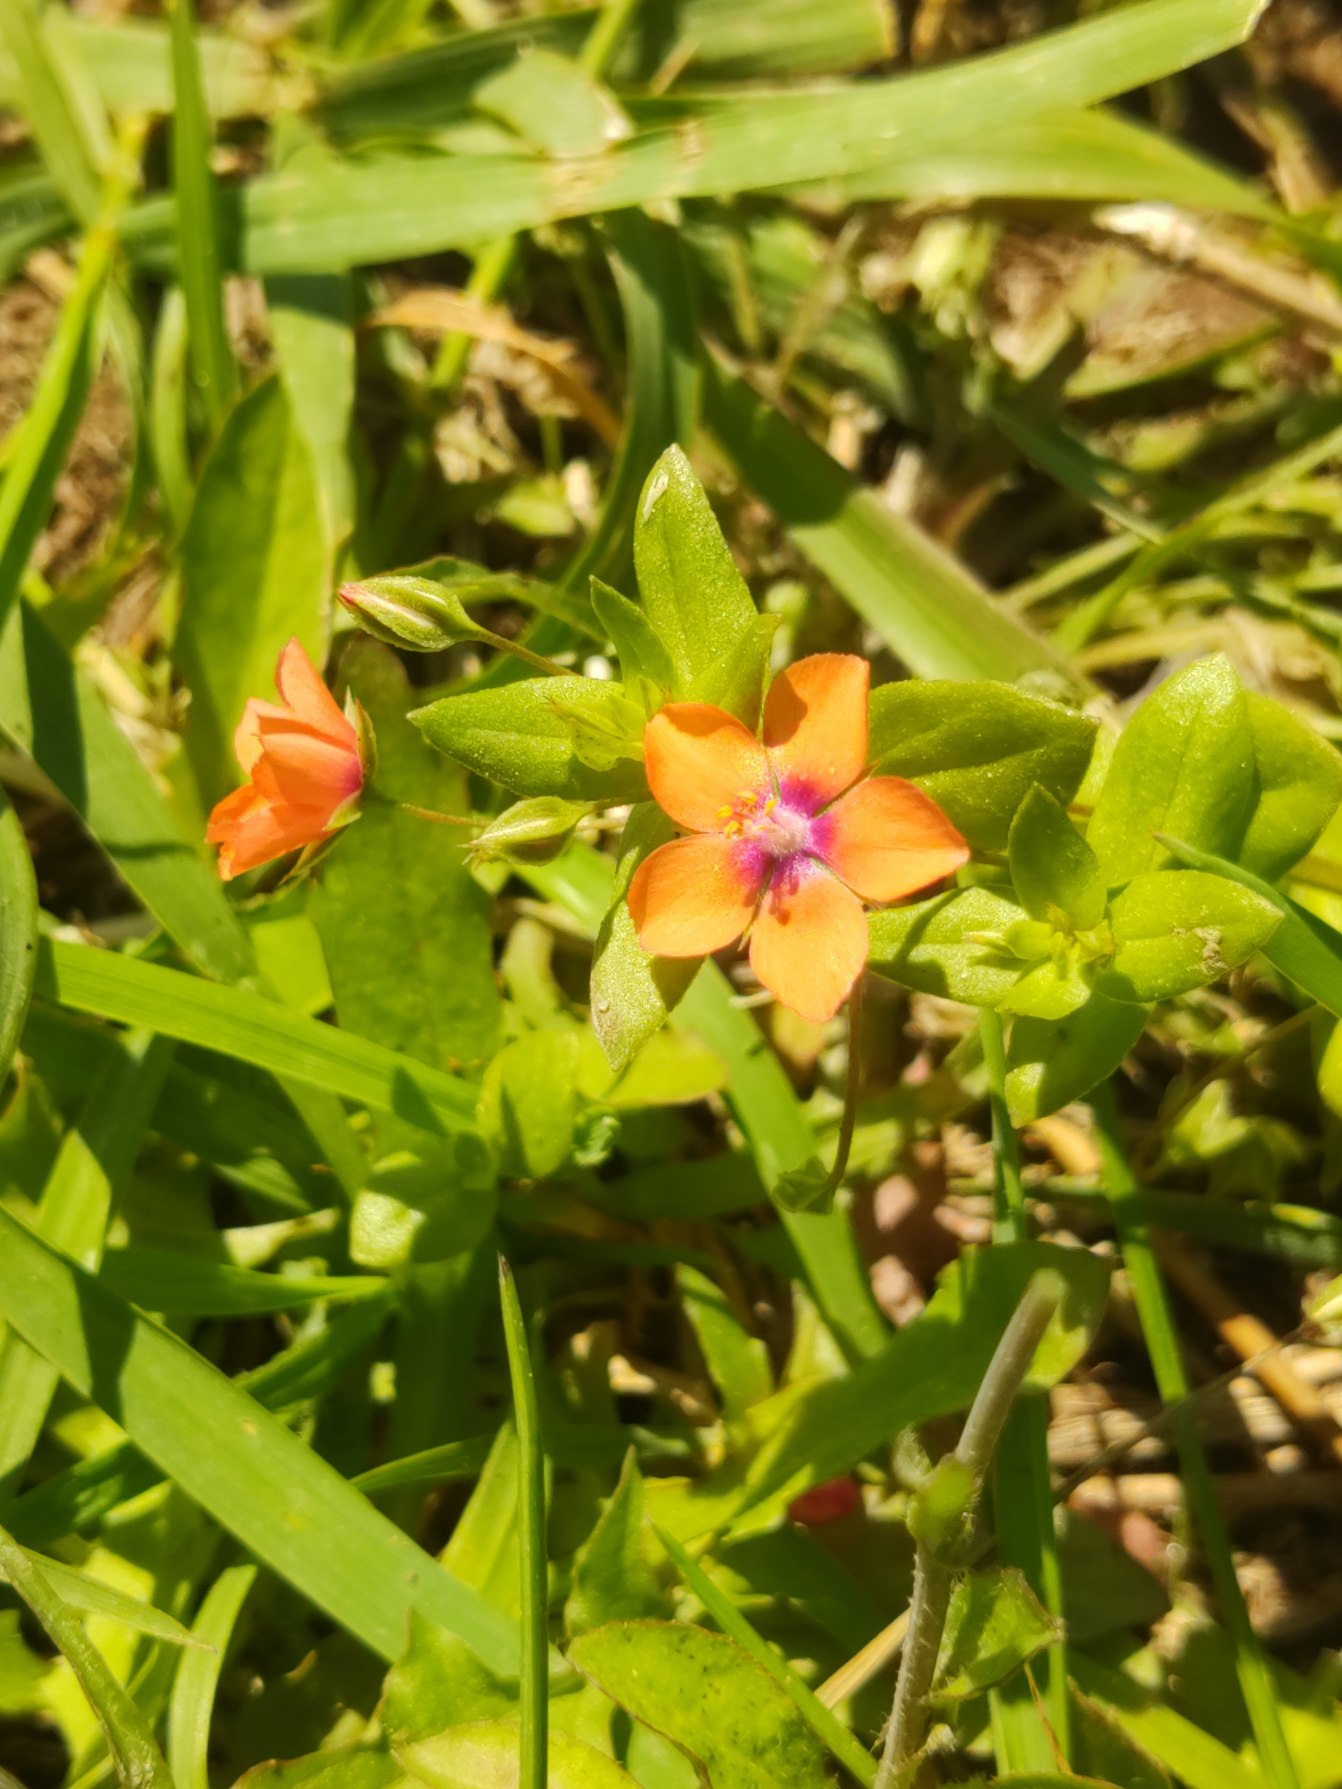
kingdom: Plantae
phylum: Tracheophyta
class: Magnoliopsida
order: Ericales
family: Primulaceae
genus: Lysimachia
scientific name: Lysimachia arvensis
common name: Rød arve
